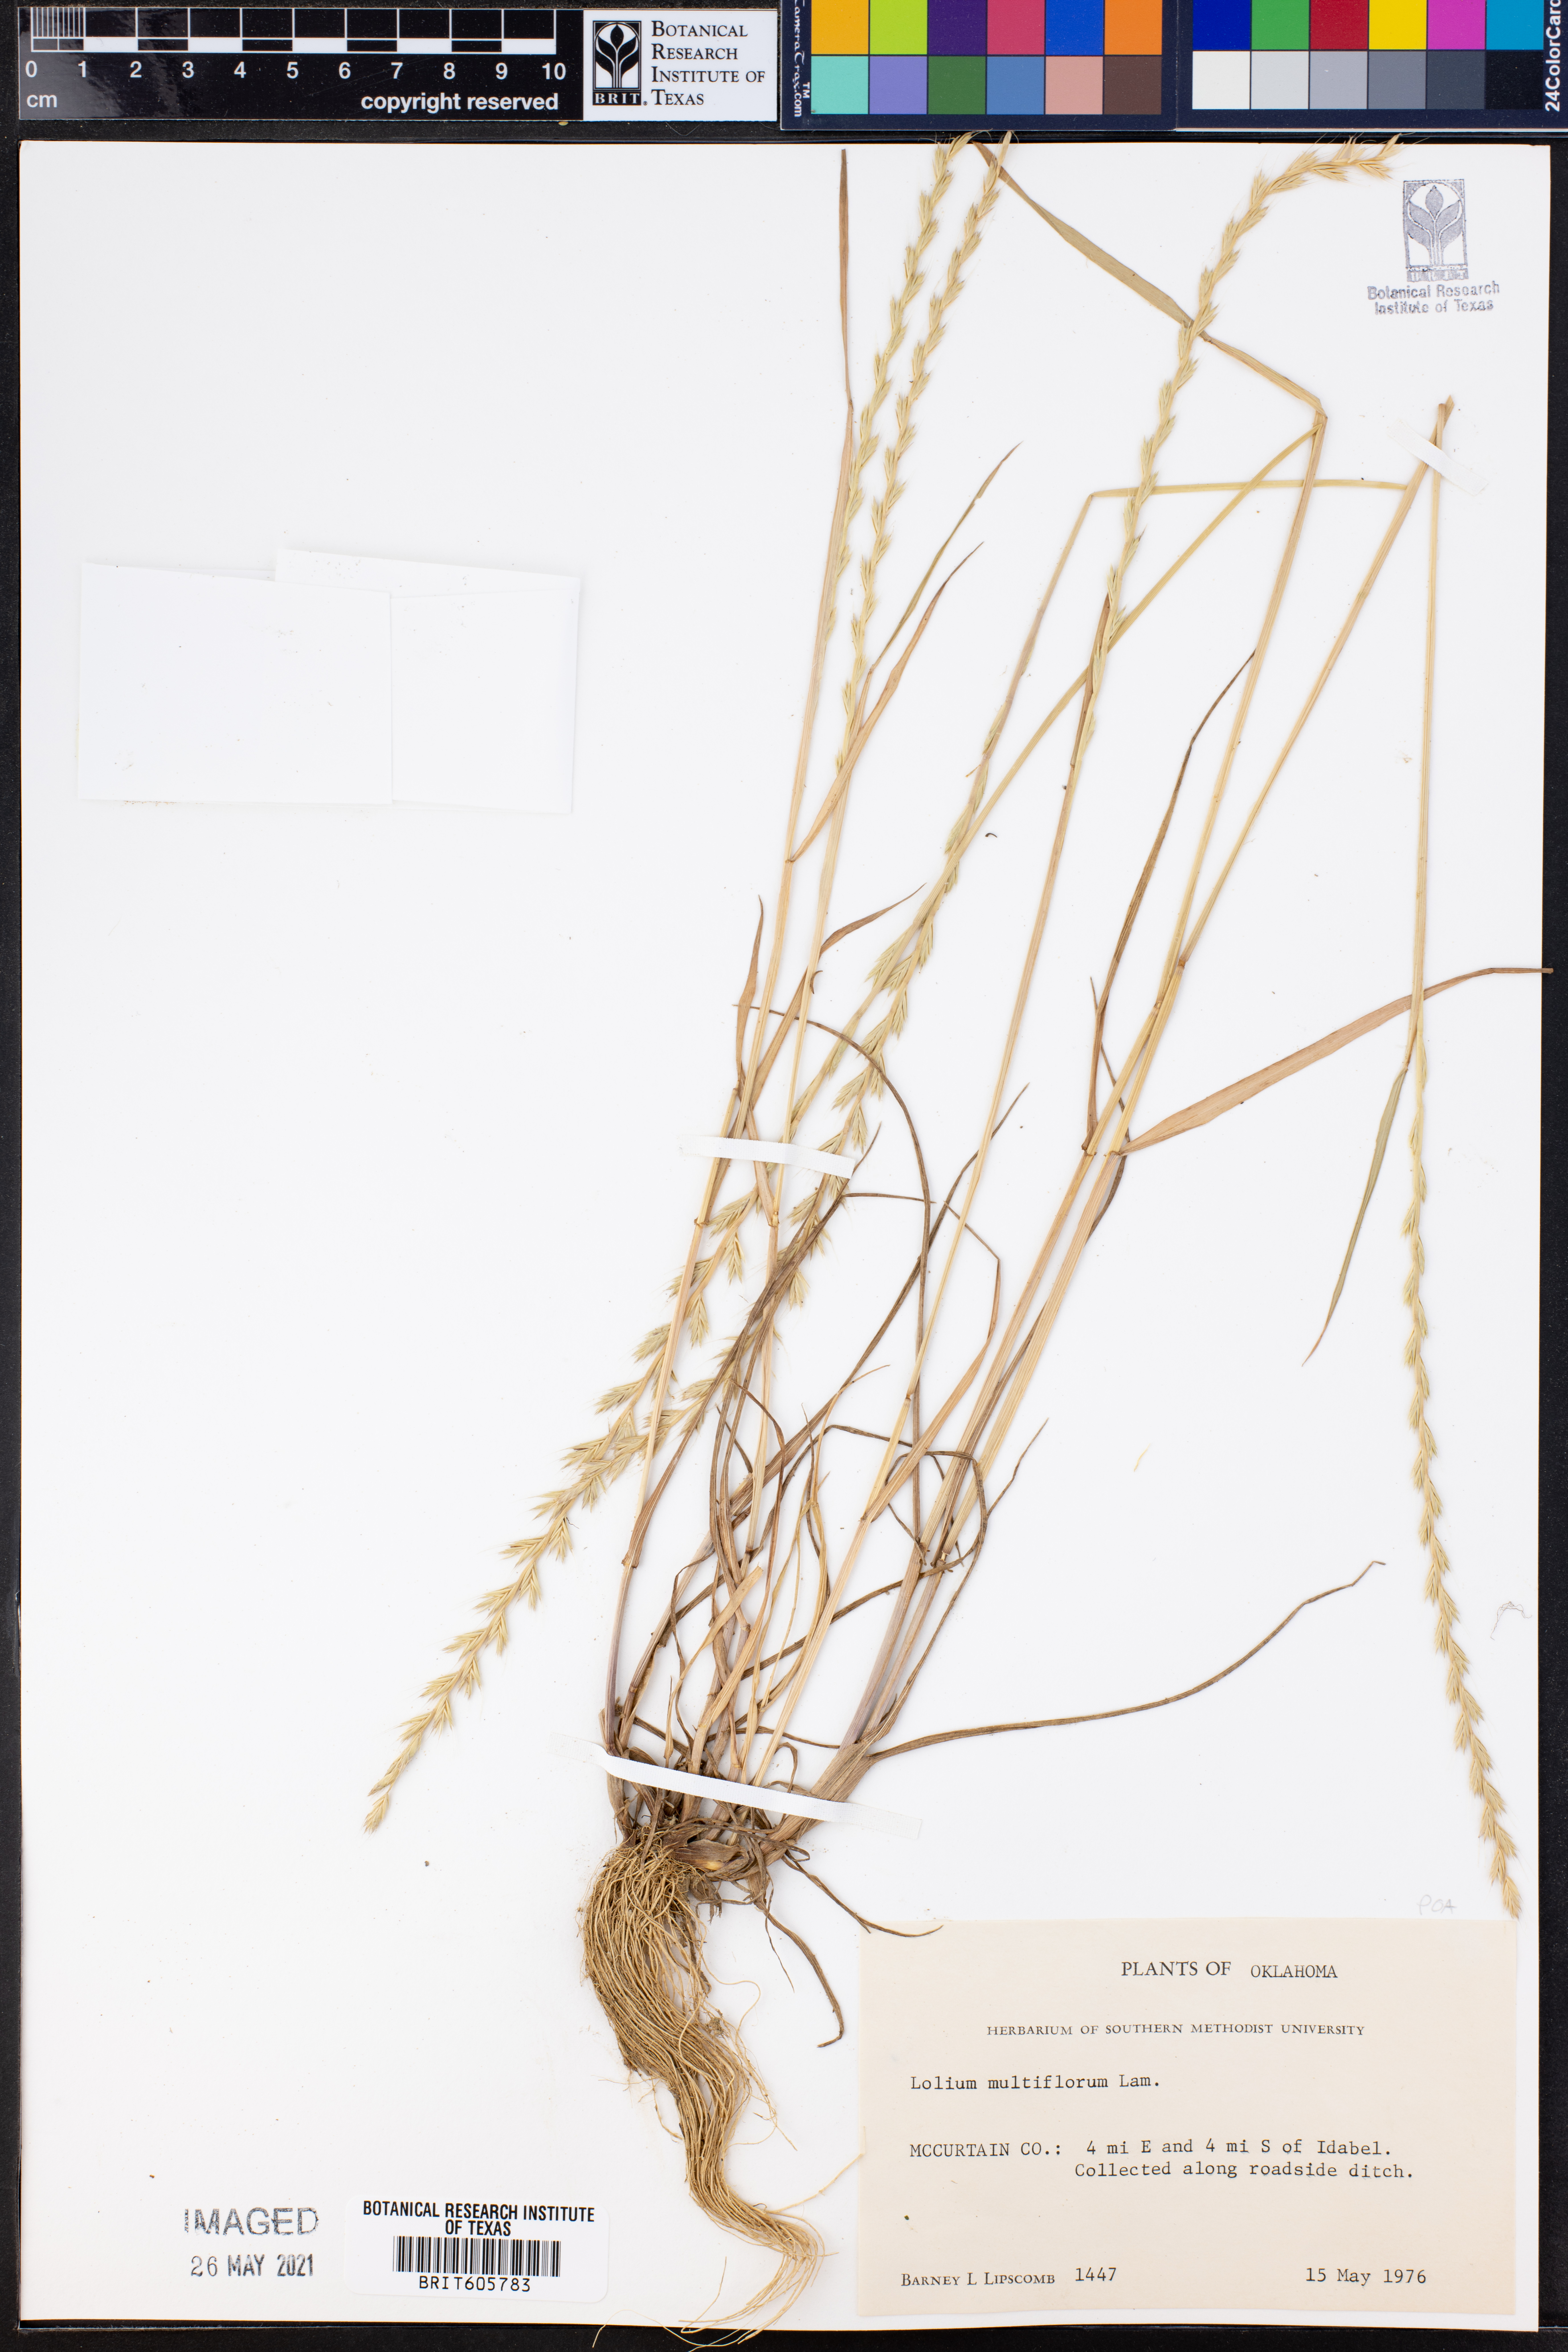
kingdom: Plantae
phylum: Tracheophyta
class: Liliopsida
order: Poales
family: Poaceae
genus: Lolium
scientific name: Lolium multiflorum
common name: Annual ryegrass
